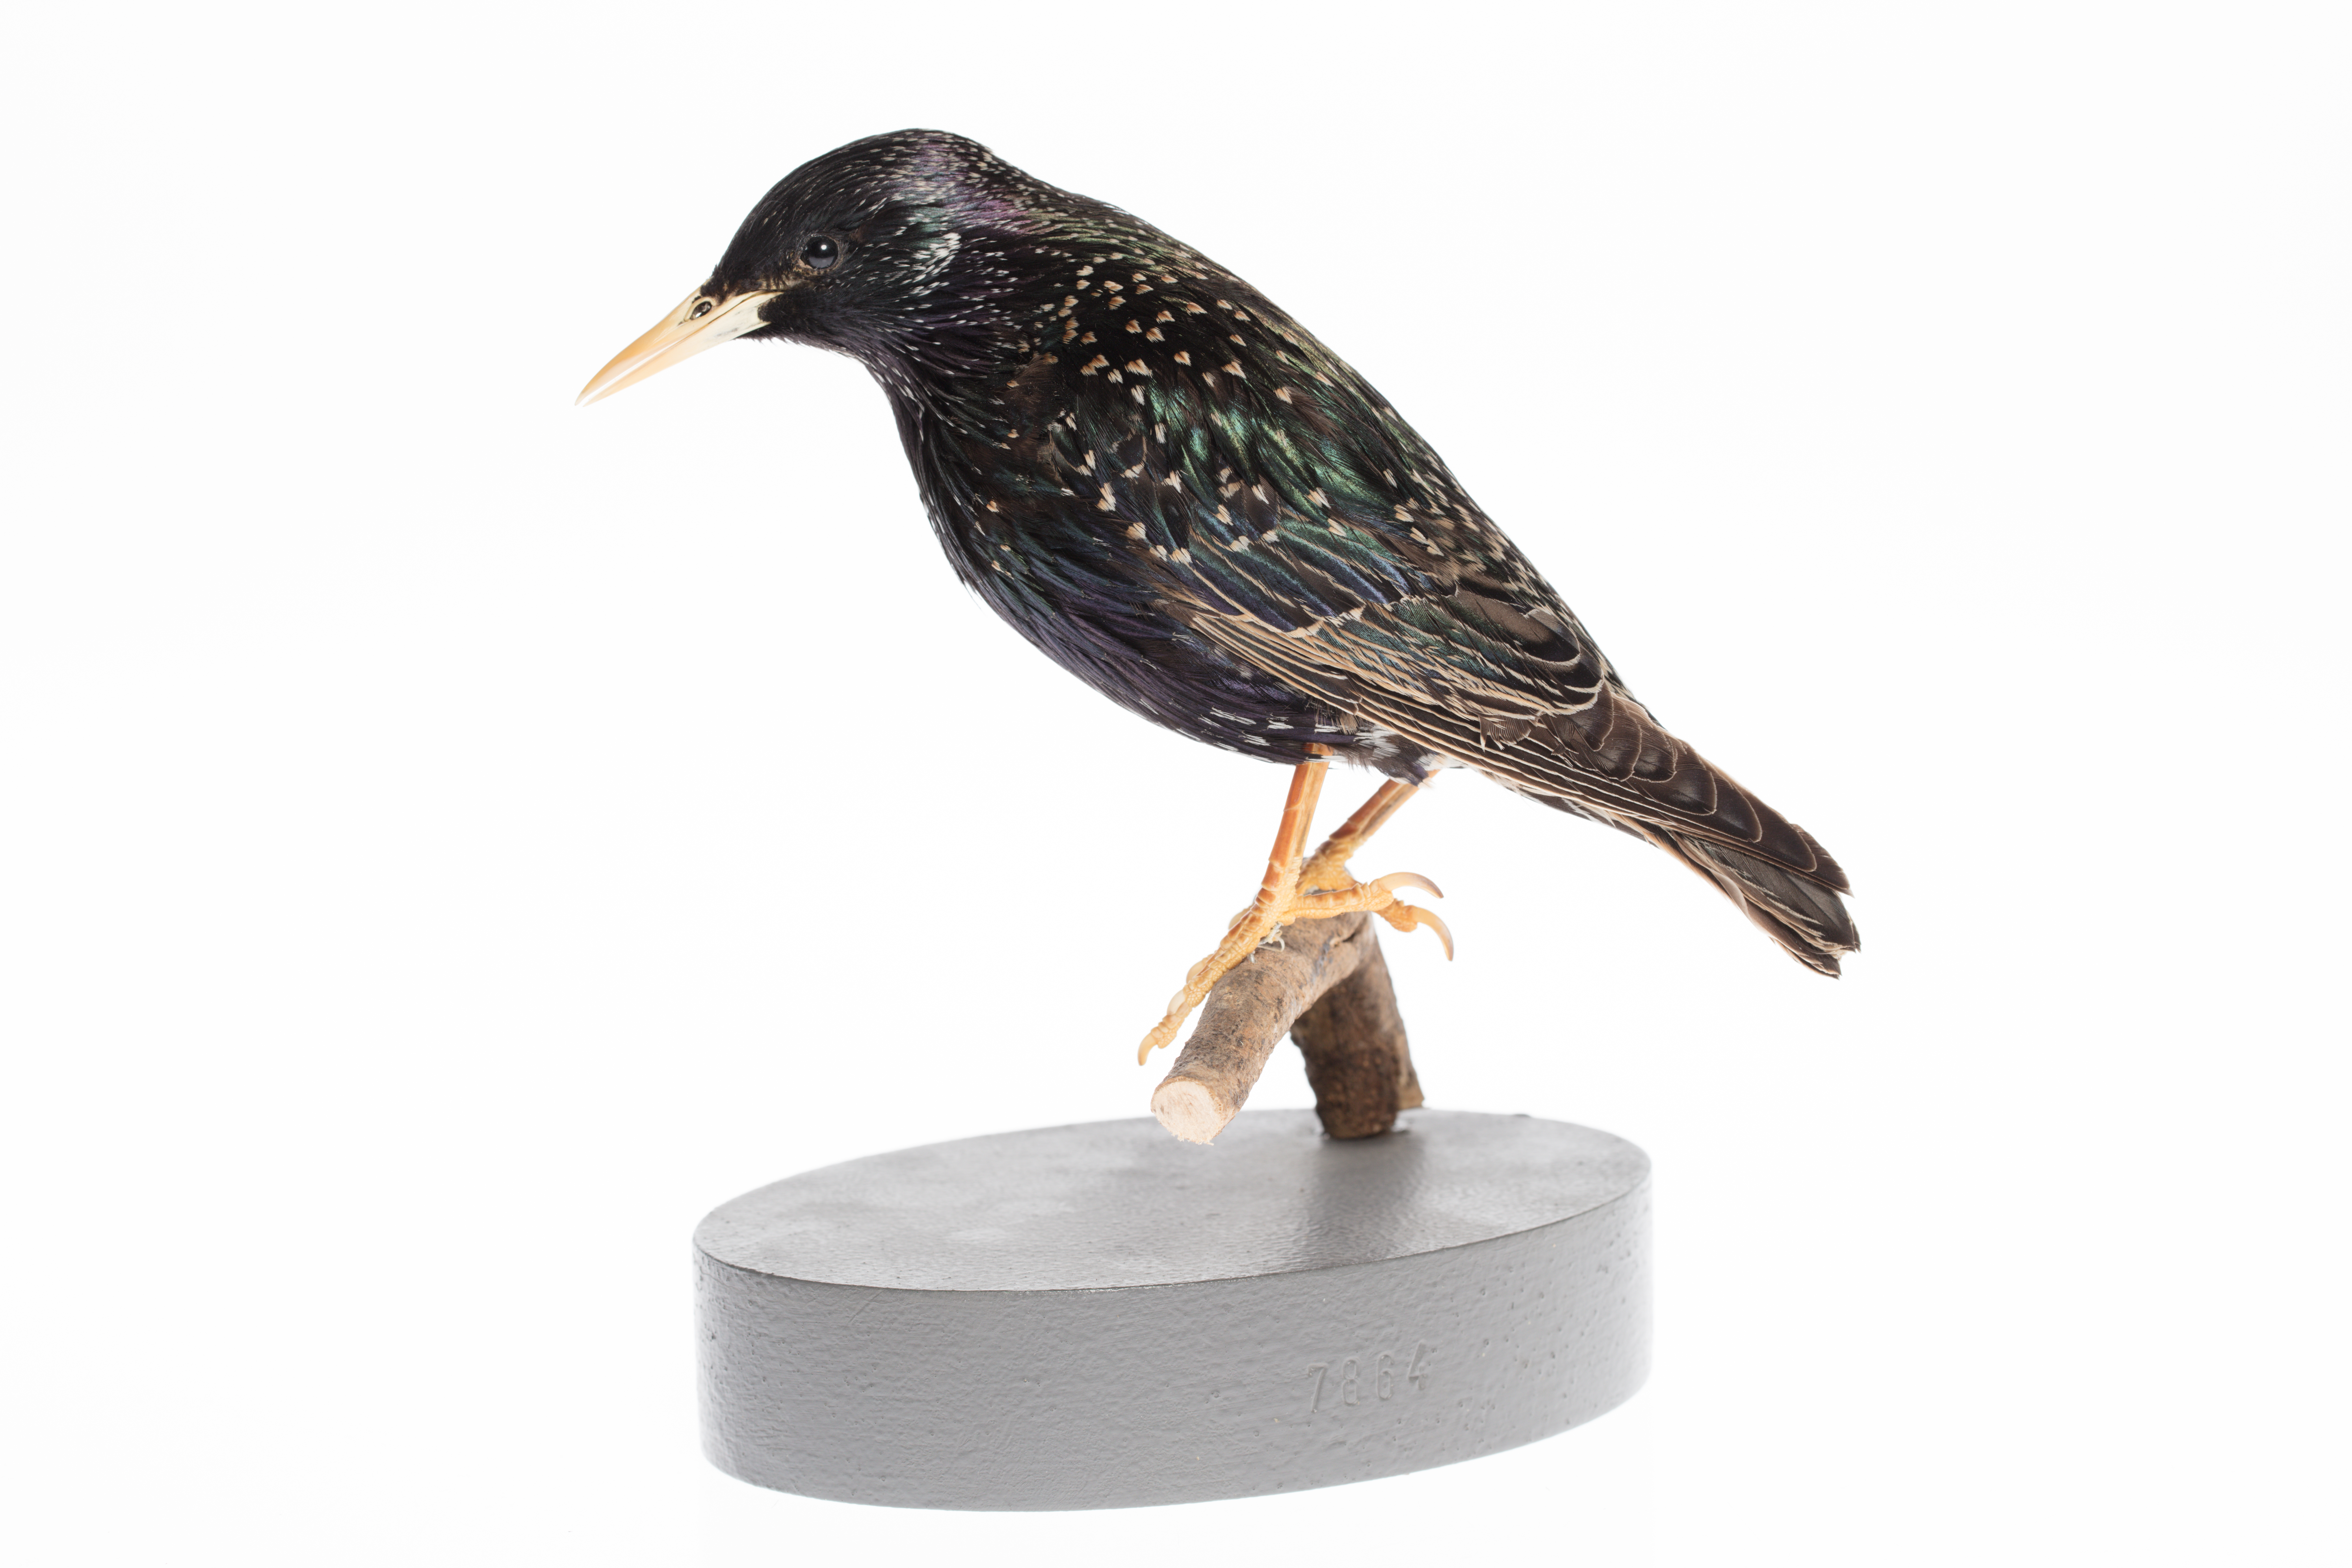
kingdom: Animalia
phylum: Chordata
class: Aves
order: Passeriformes
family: Sturnidae
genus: Sturnus
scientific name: Sturnus vulgaris
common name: Common starling
